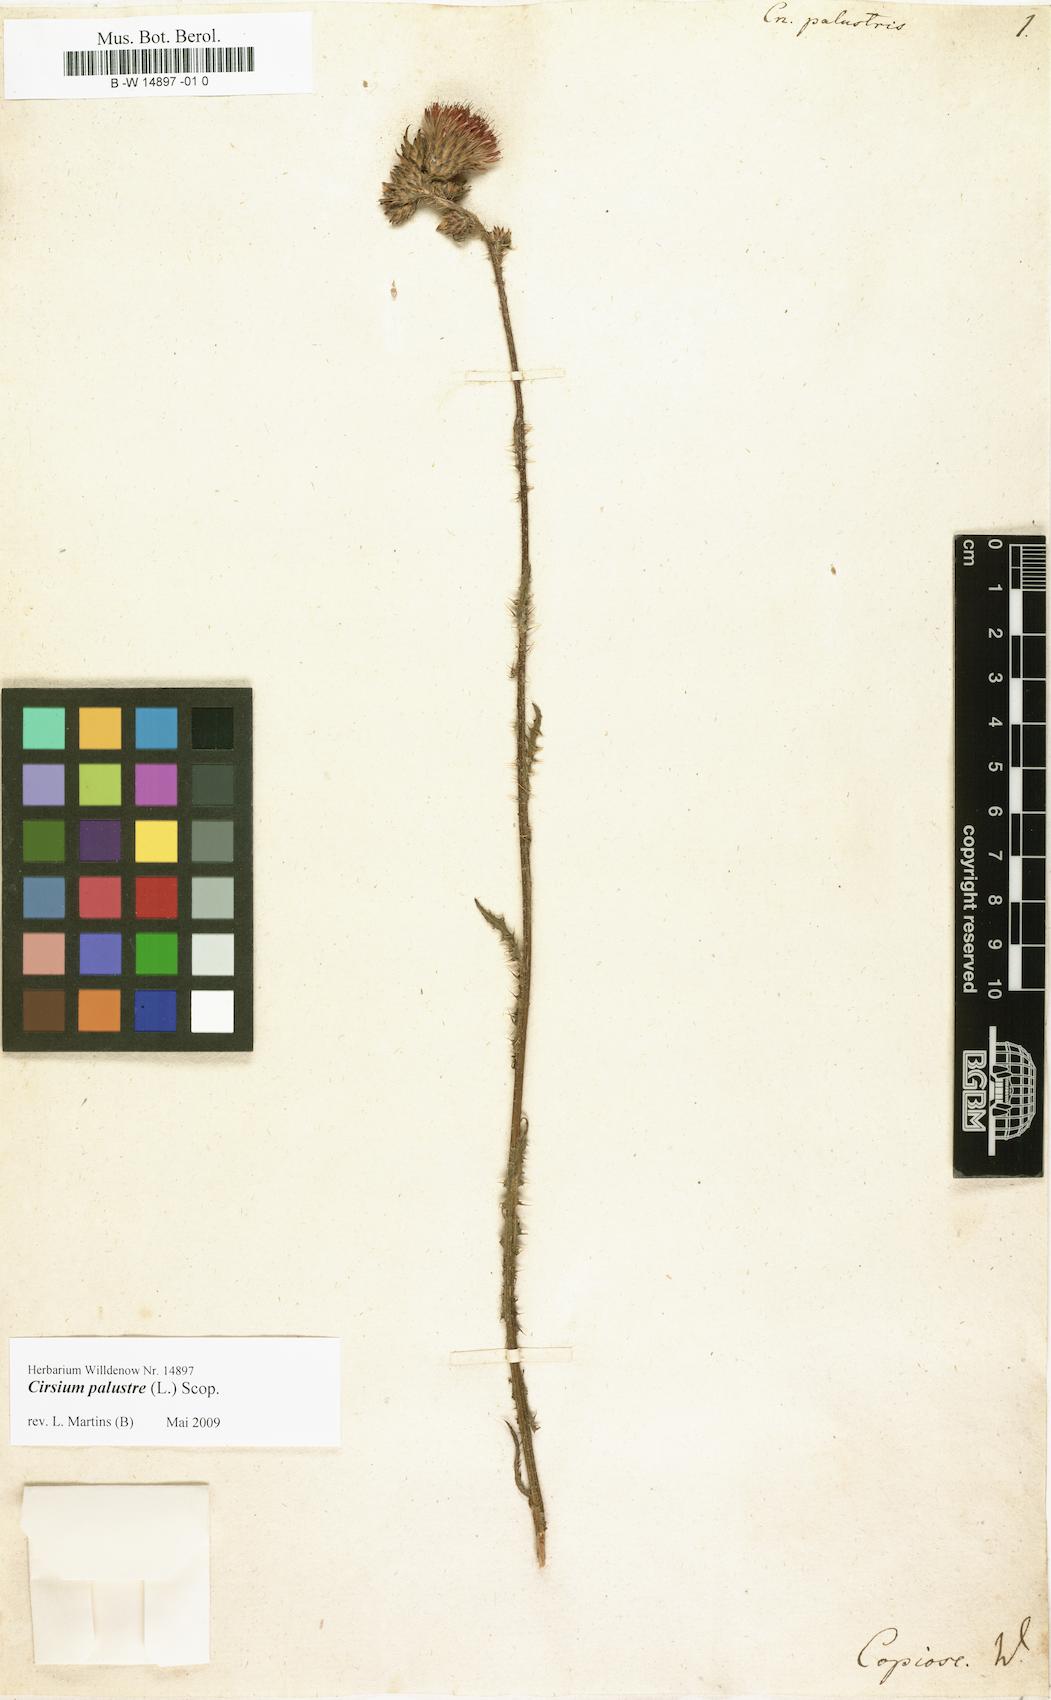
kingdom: Plantae
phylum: Tracheophyta
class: Magnoliopsida
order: Asterales
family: Asteraceae
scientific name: Asteraceae
